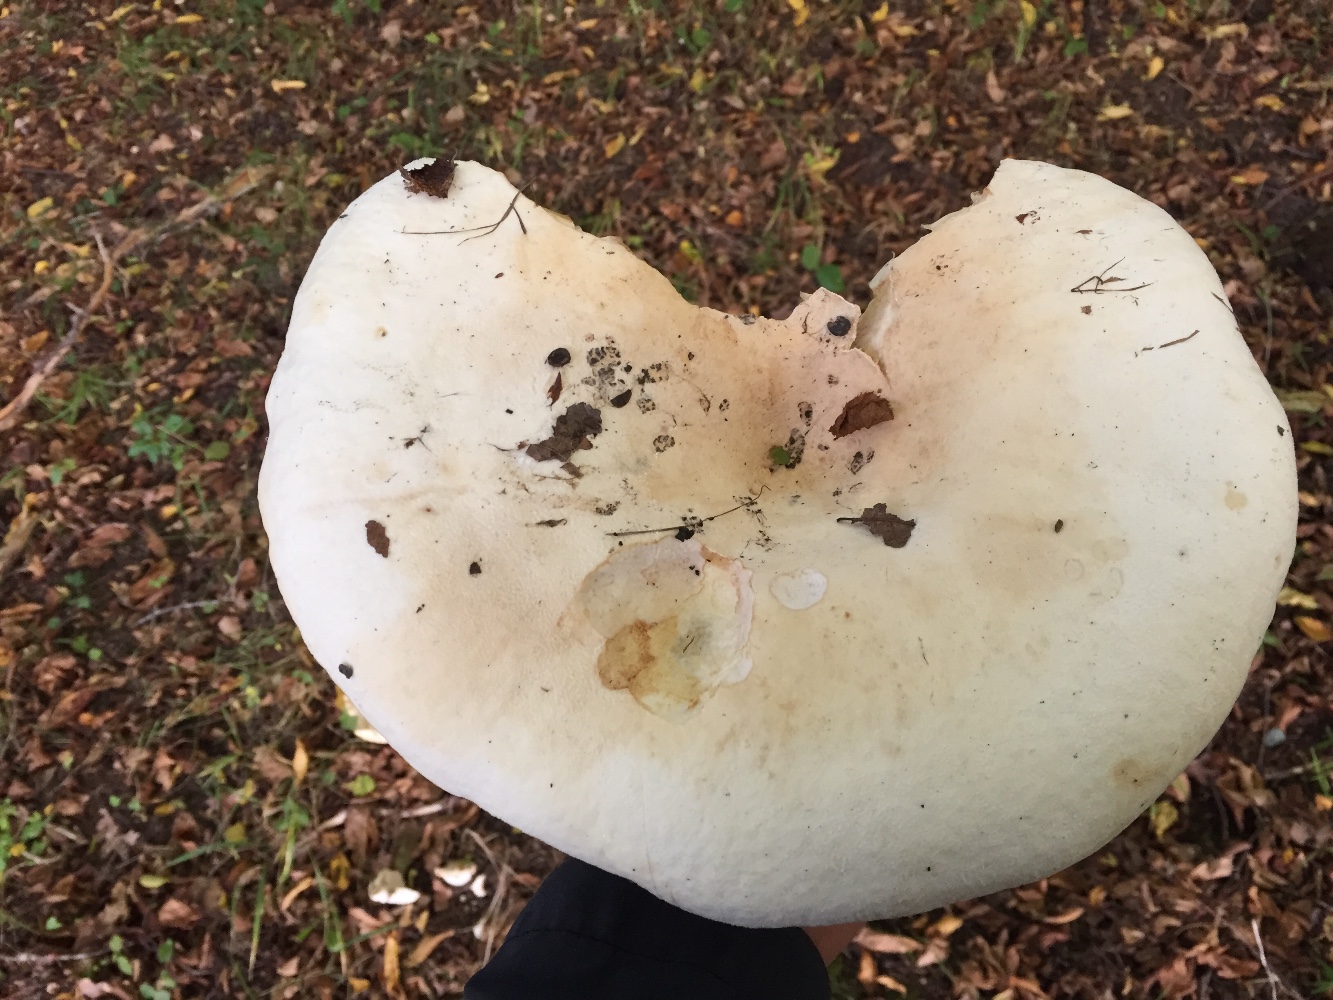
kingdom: Fungi
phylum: Basidiomycota
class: Agaricomycetes
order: Russulales
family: Russulaceae
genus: Lactifluus
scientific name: Lactifluus vellereus
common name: hvidfiltet mælkehat
